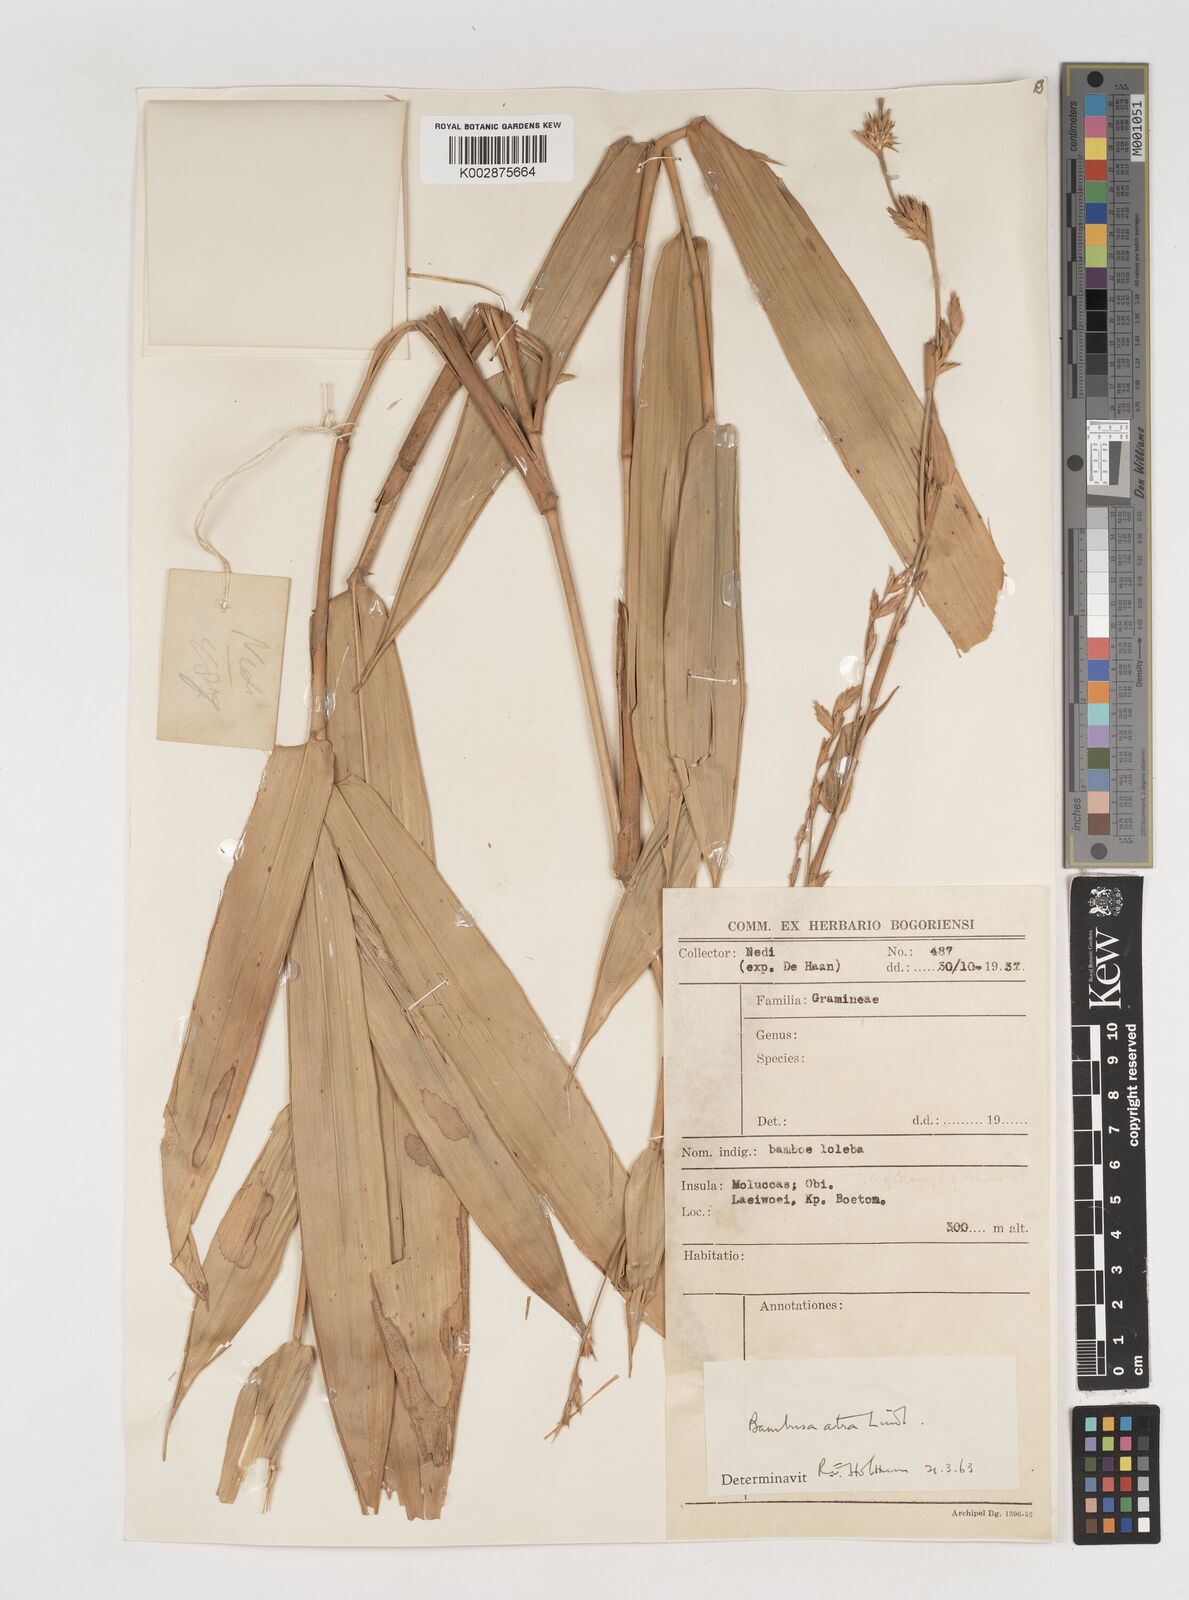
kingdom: Plantae
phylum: Tracheophyta
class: Liliopsida
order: Poales
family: Poaceae
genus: Neololeba
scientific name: Neololeba atra
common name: Cape bamboo
